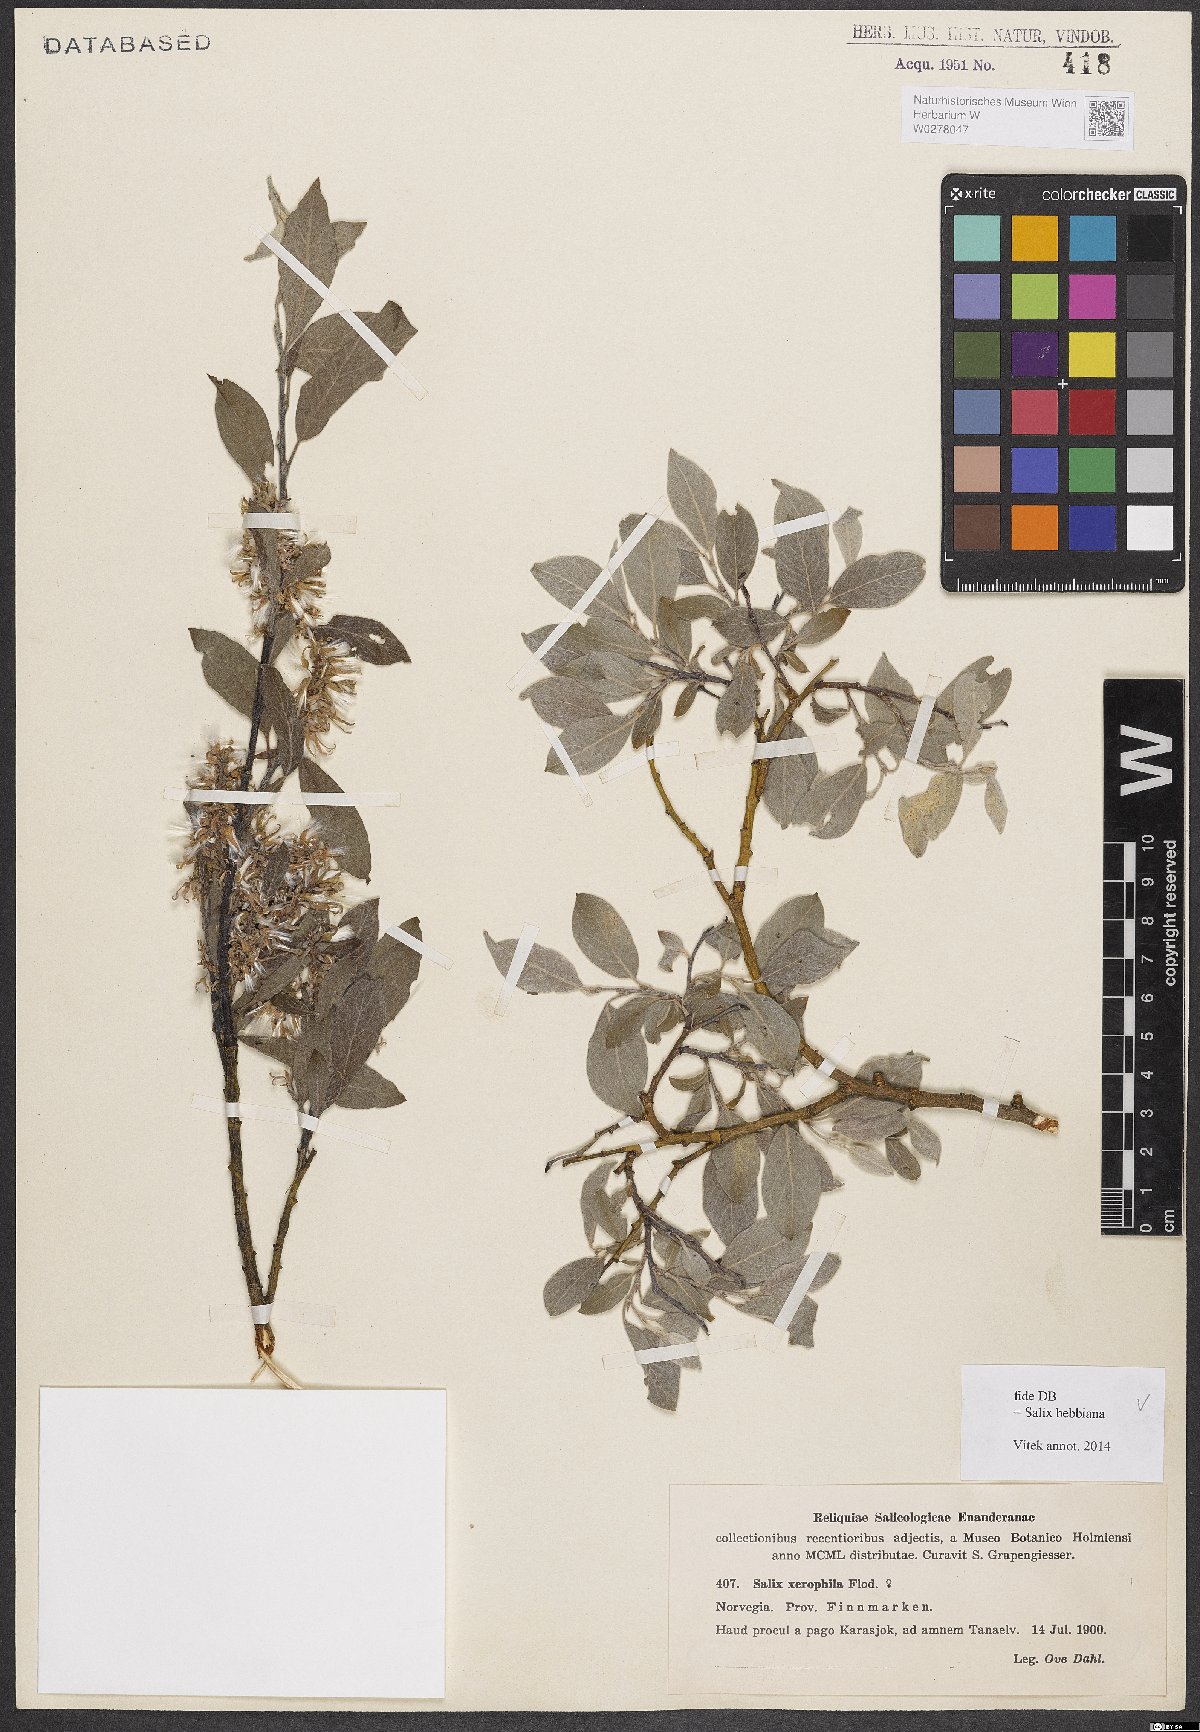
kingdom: Plantae
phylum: Tracheophyta
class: Magnoliopsida
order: Malpighiales
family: Salicaceae
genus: Salix
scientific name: Salix bebbiana
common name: Bebb's willow
